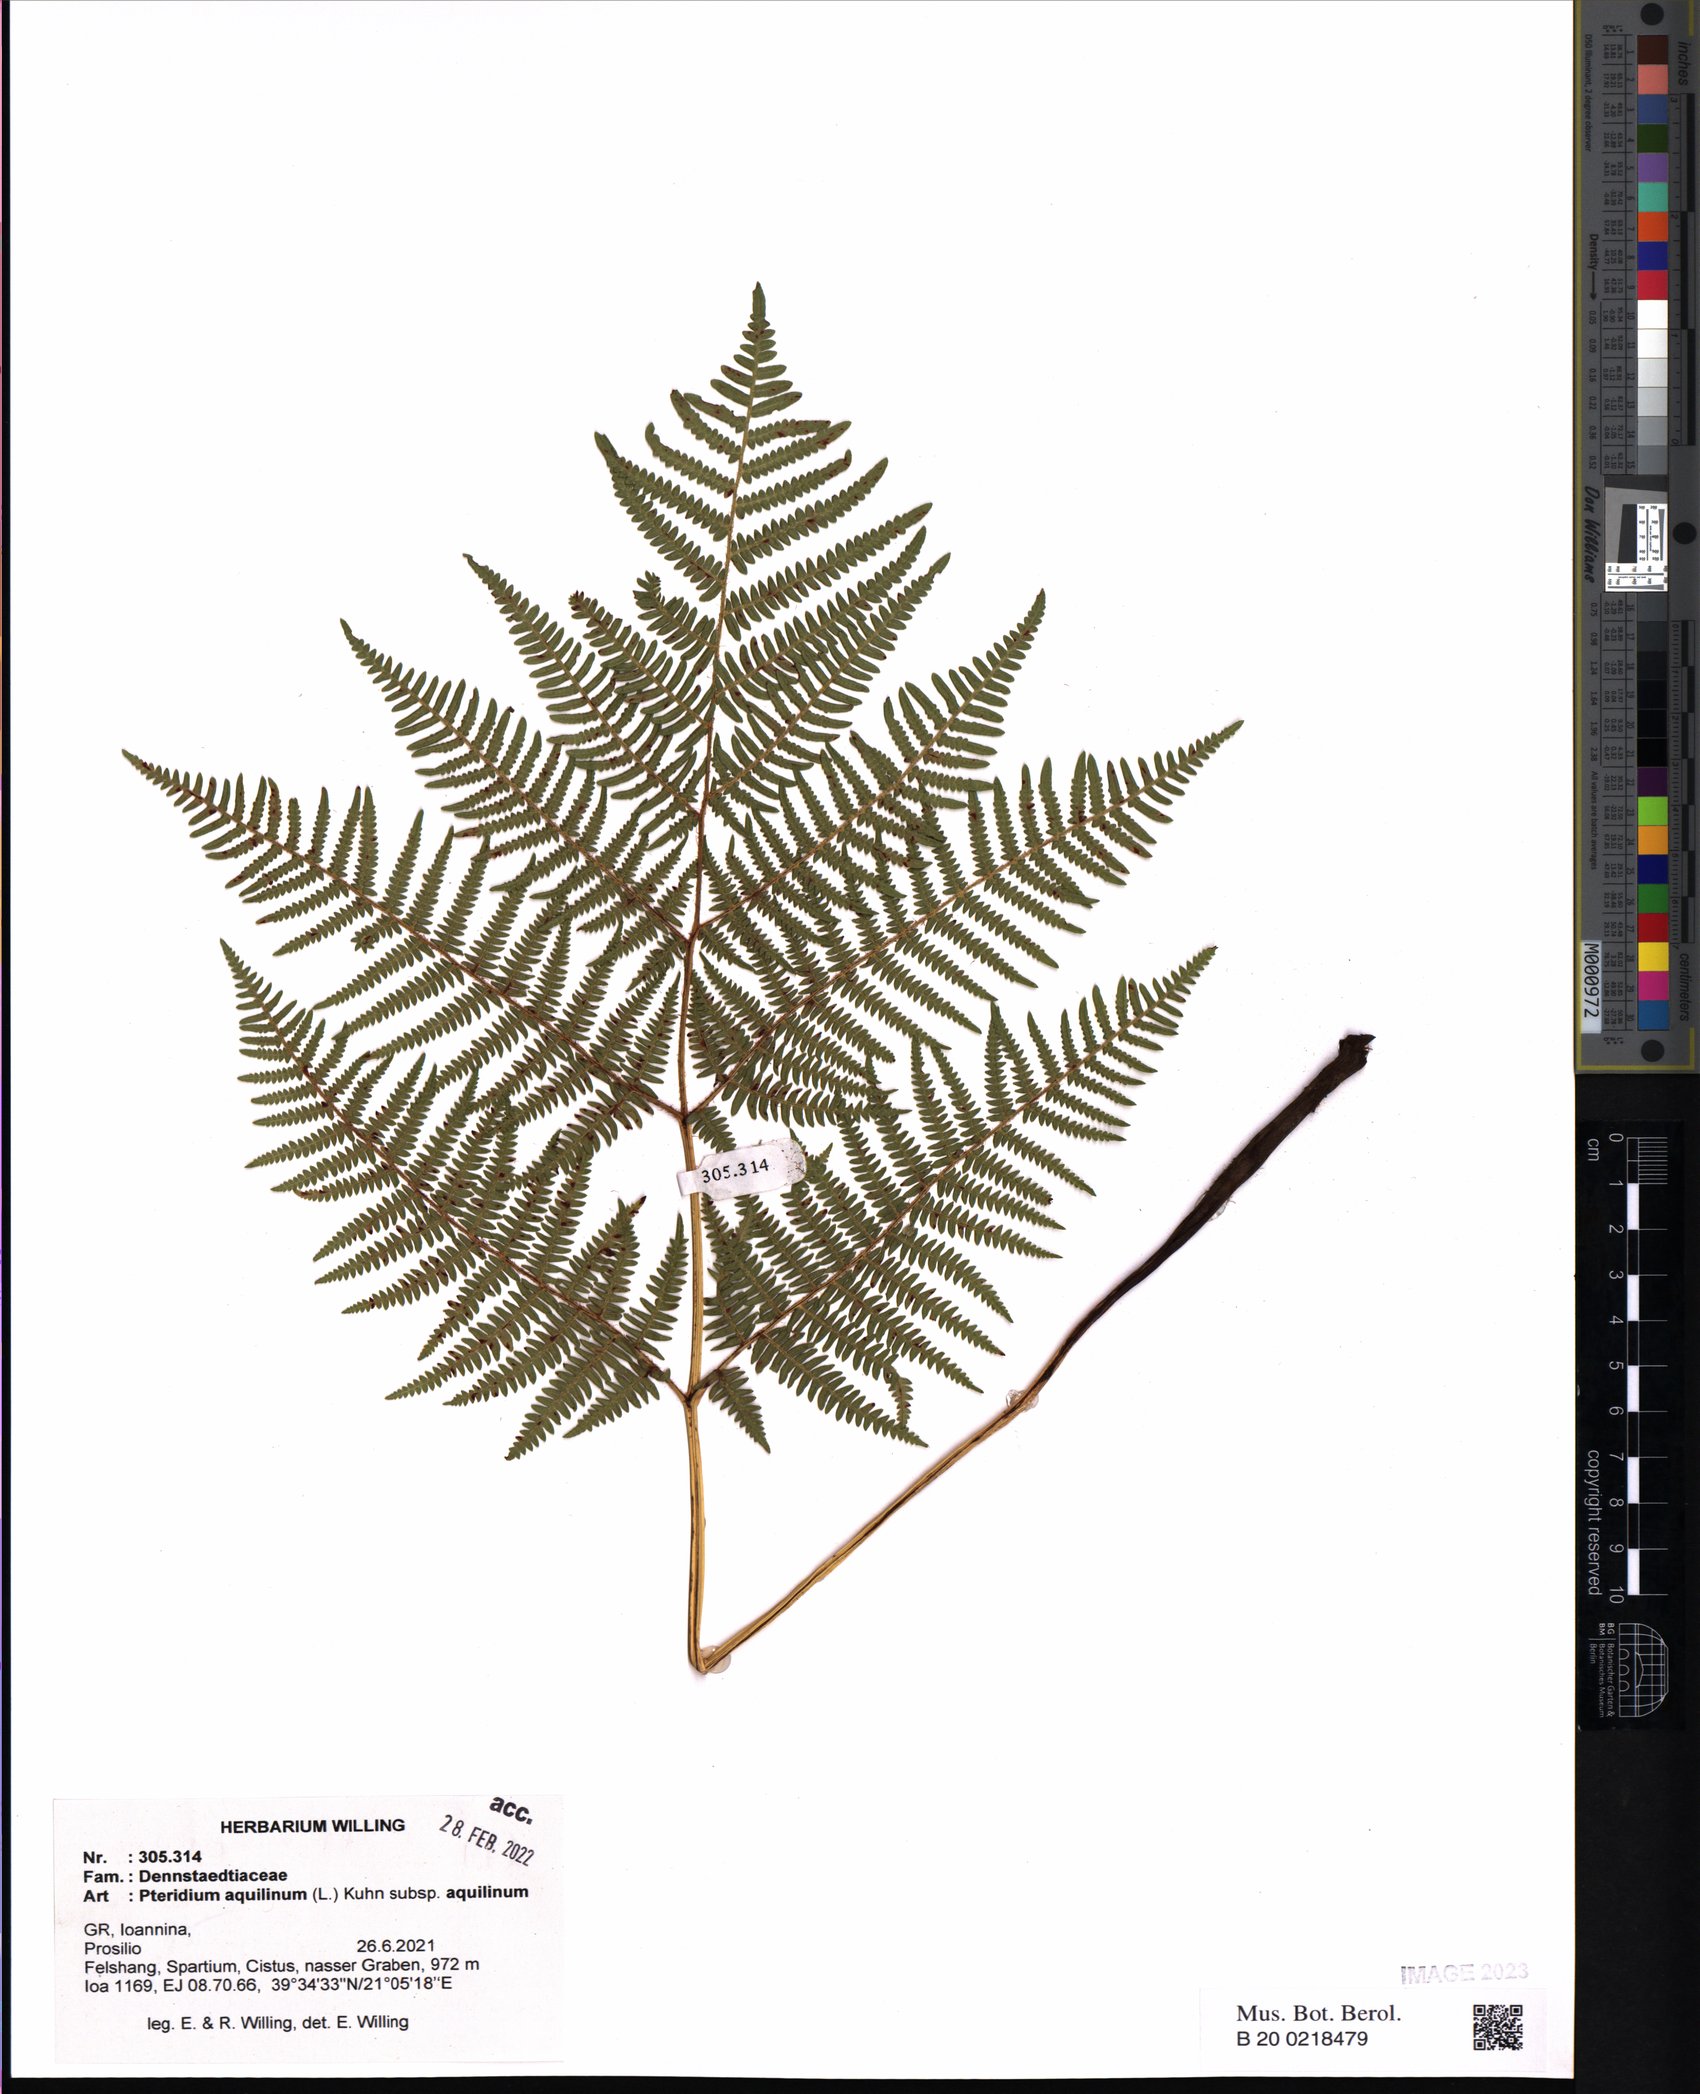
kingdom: Plantae
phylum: Tracheophyta
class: Polypodiopsida
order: Polypodiales
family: Dennstaedtiaceae
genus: Pteridium
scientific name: Pteridium aquilinum
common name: Bracken
